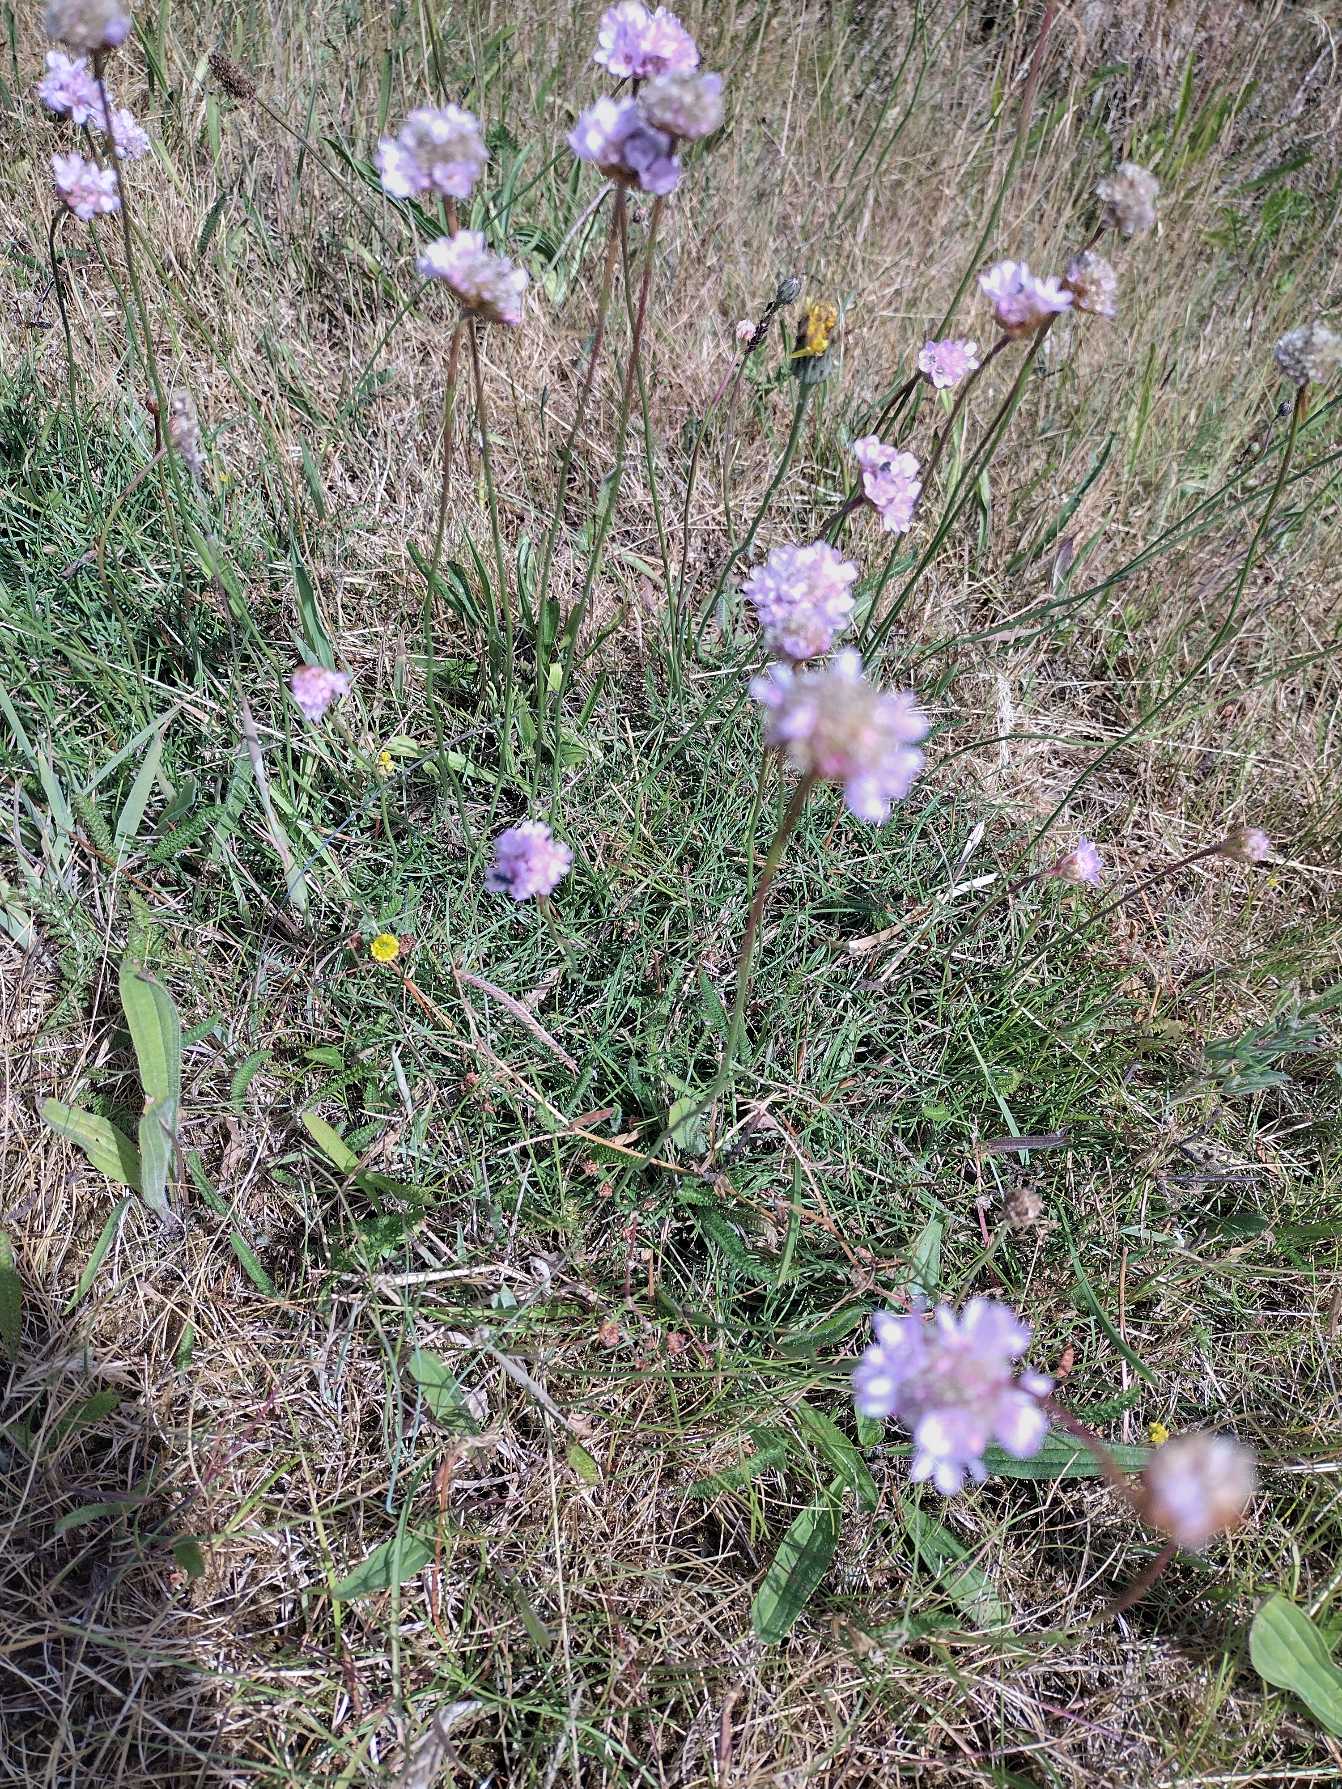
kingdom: Plantae
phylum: Tracheophyta
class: Magnoliopsida
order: Caryophyllales
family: Plumbaginaceae
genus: Armeria
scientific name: Armeria maritima
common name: Engelskgræs
